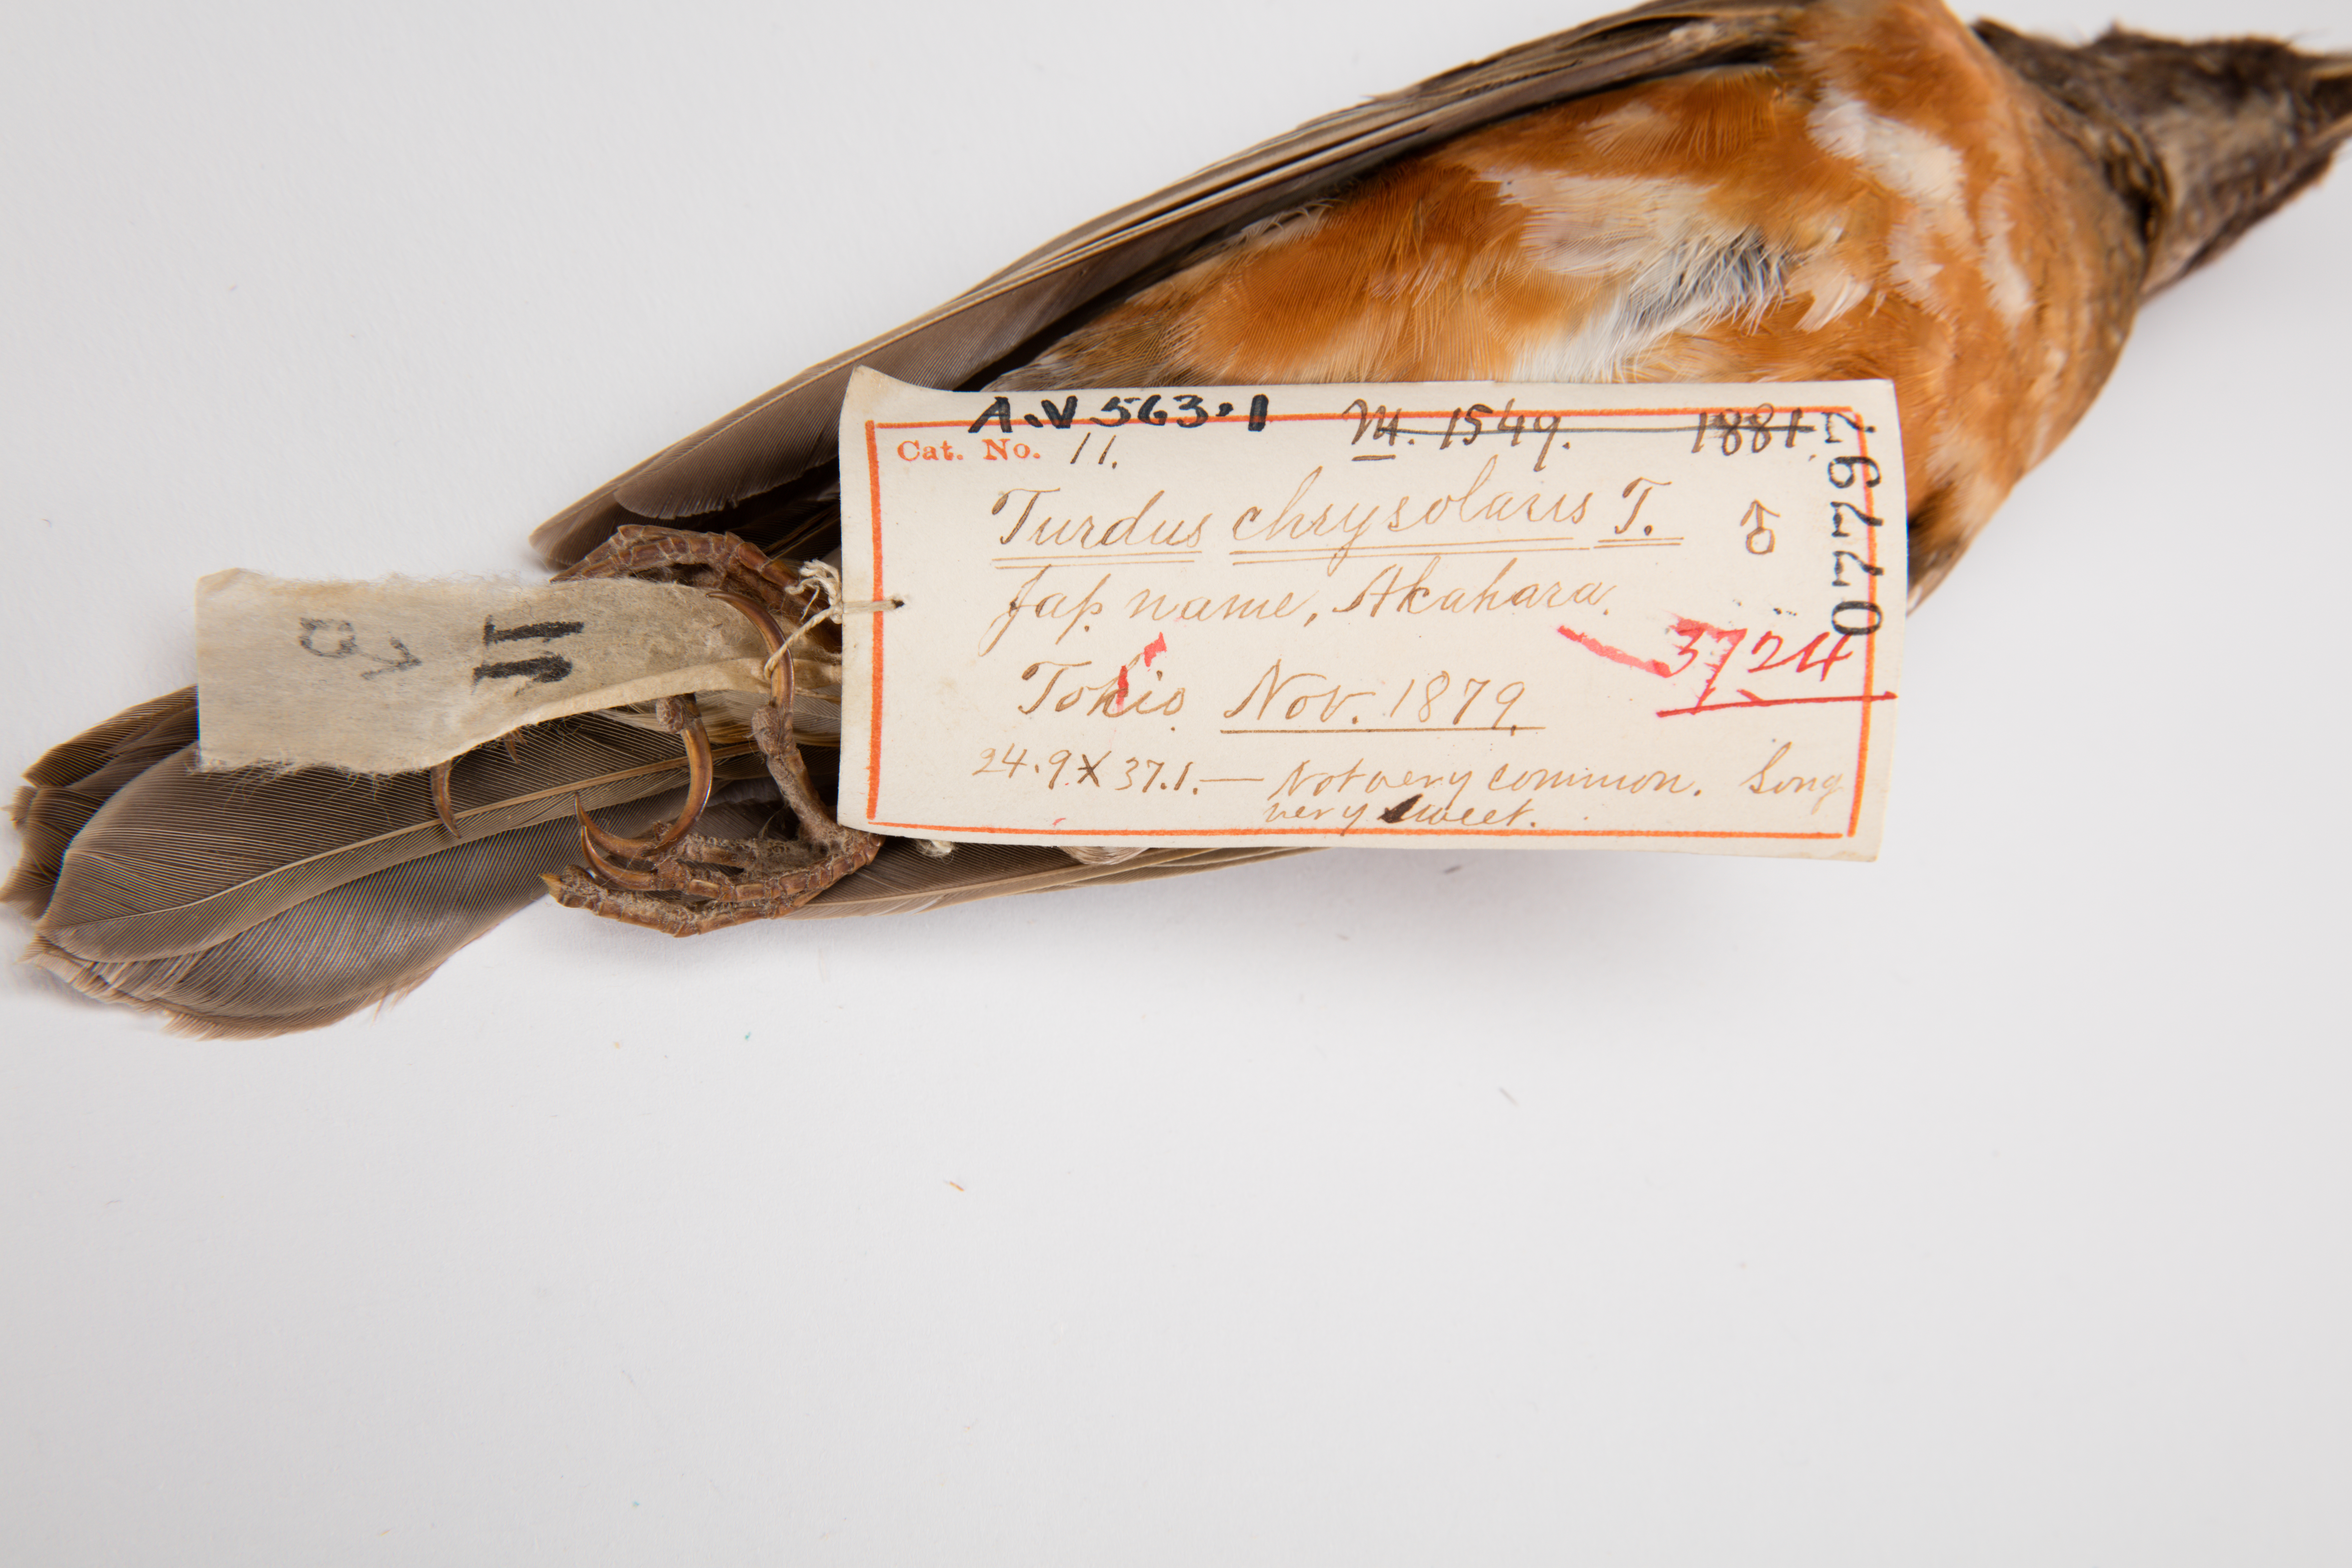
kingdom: Animalia
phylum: Chordata
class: Aves
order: Passeriformes
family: Turdidae
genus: Turdus
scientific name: Turdus chrysolaus
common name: Brown-headed thrush
